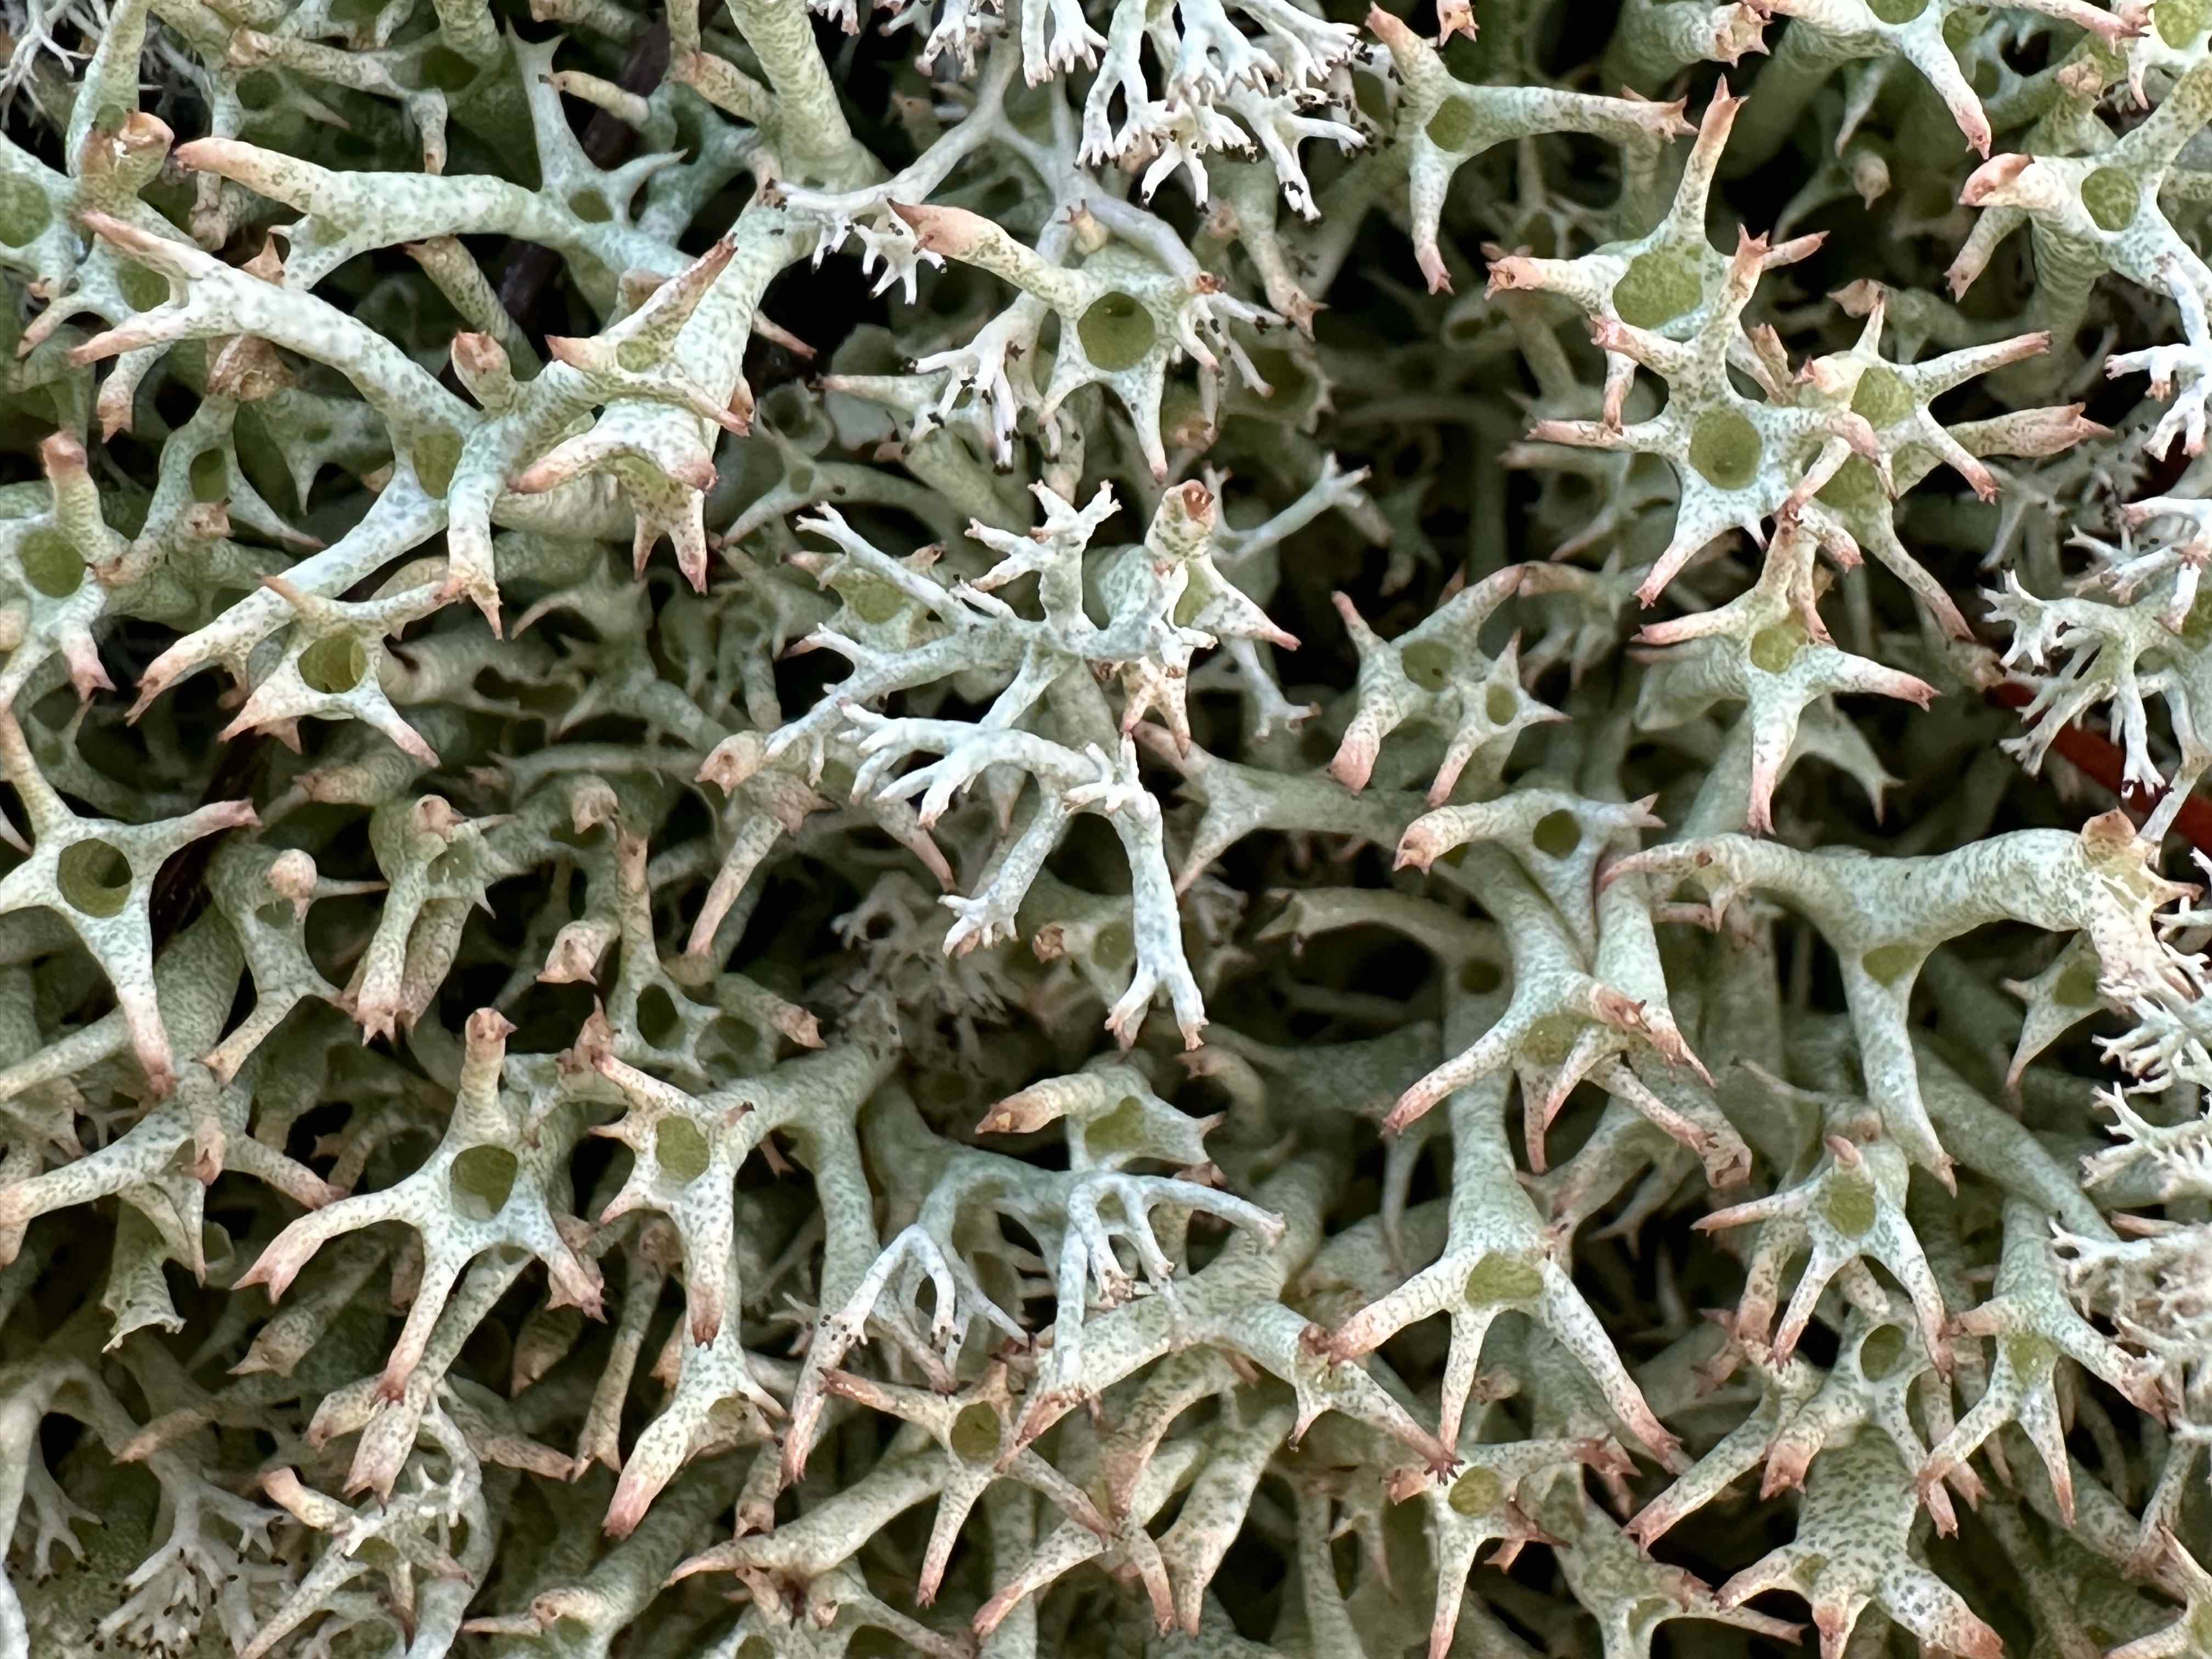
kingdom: Fungi
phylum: Ascomycota
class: Lecanoromycetes
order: Lecanorales
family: Cladoniaceae
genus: Cladonia
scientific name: Cladonia uncialis
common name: pigget bægerlav
